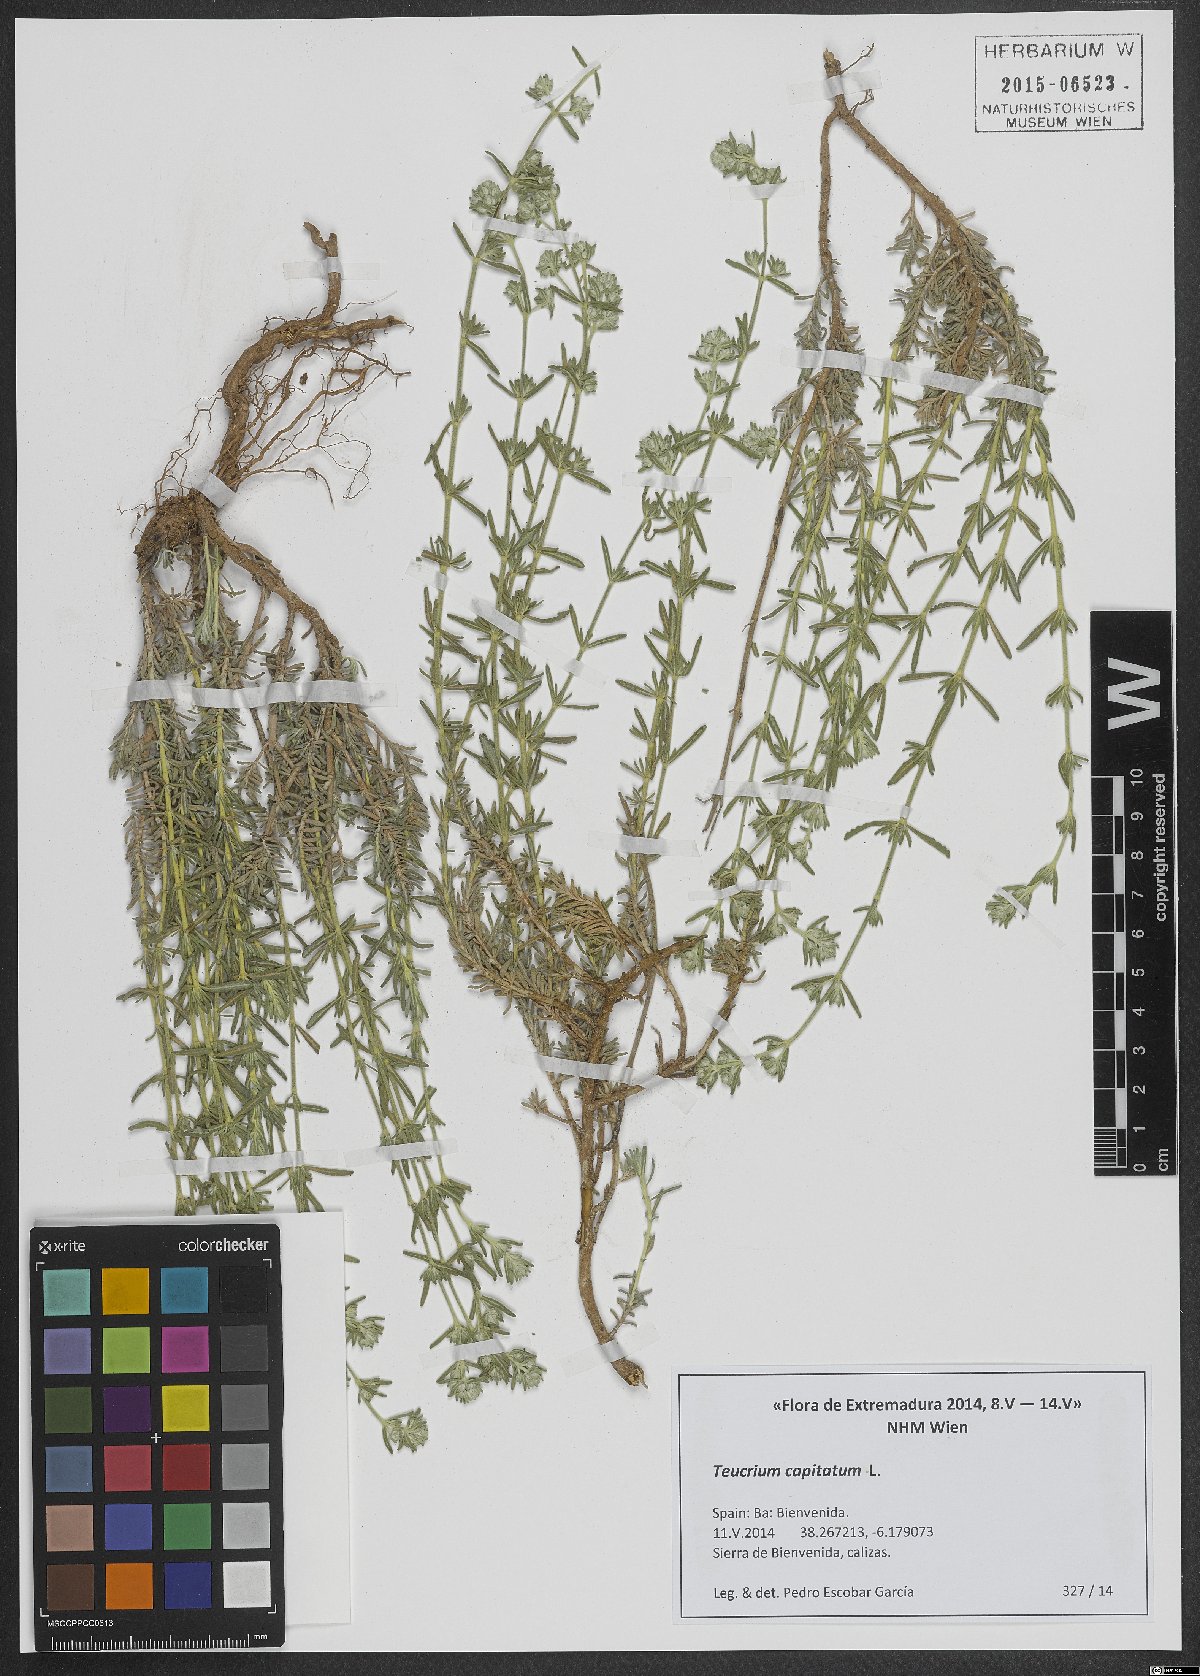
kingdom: Plantae
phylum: Tracheophyta
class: Magnoliopsida
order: Lamiales
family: Lamiaceae
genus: Teucrium
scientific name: Teucrium capitatum
